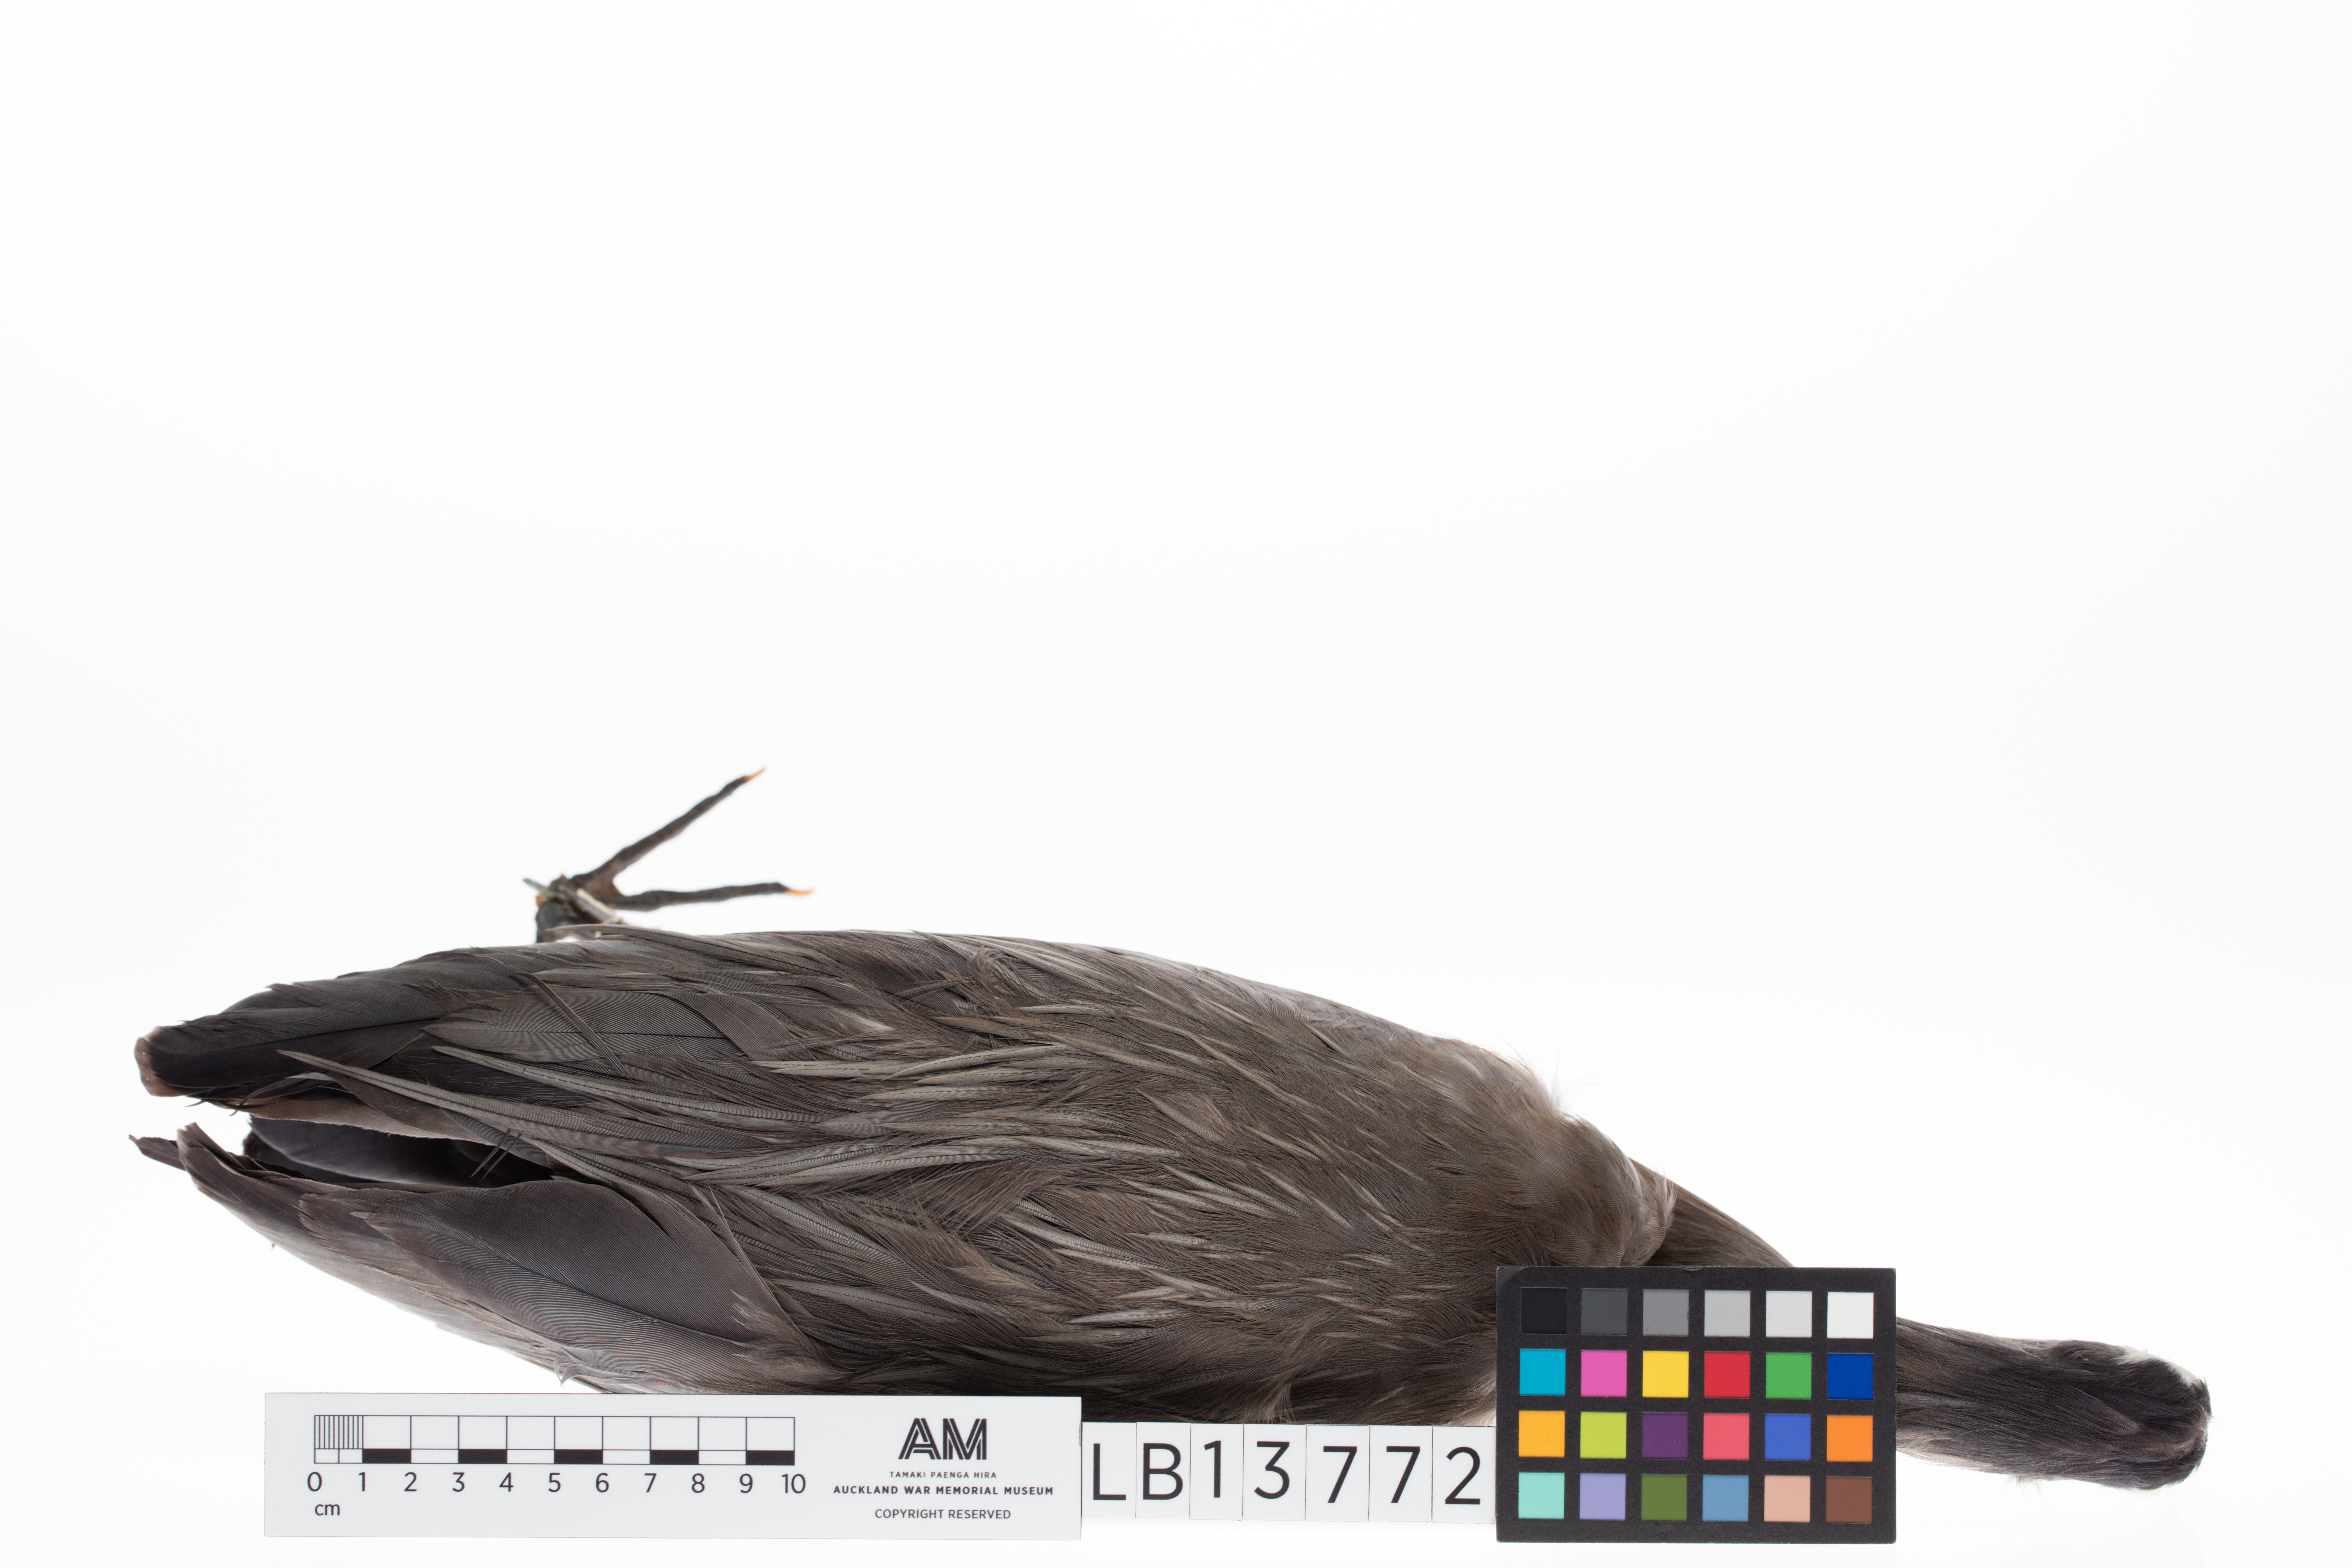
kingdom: Animalia
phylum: Chordata
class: Aves
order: Pelecaniformes
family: Ardeidae
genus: Egretta
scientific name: Egretta novaehollandiae
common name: White-faced heron
